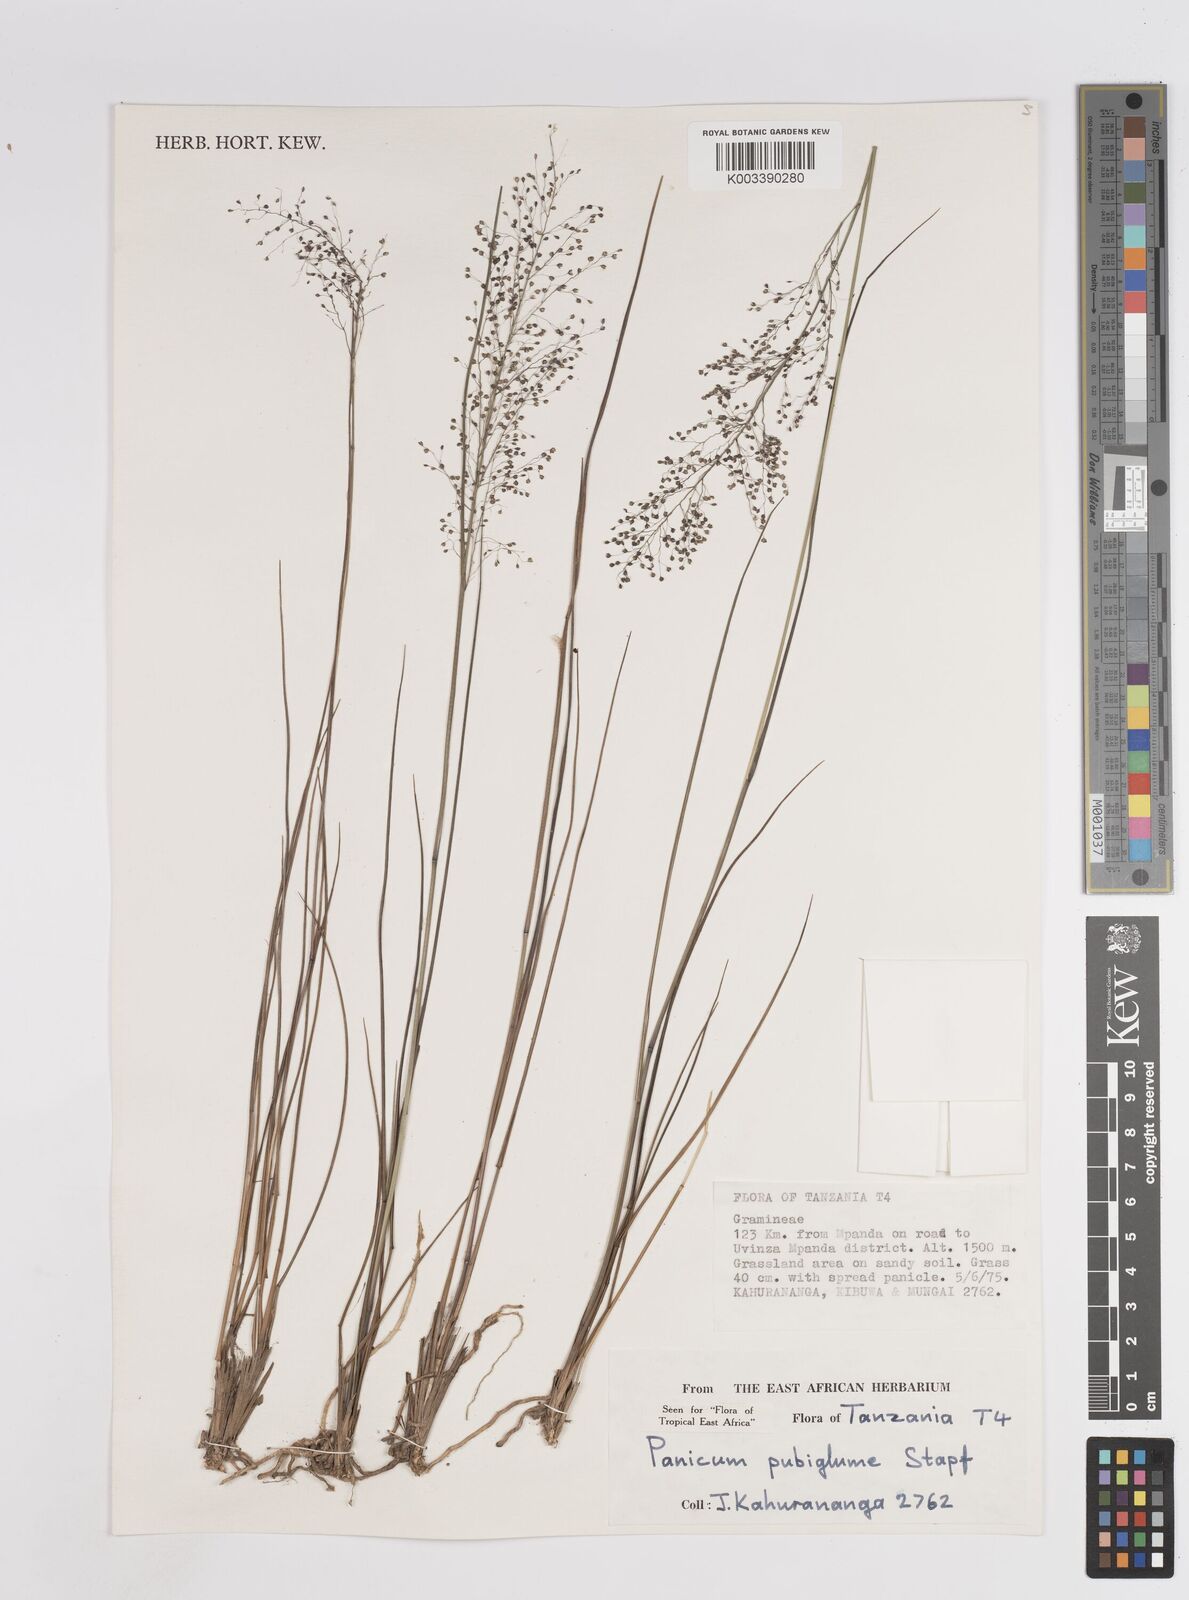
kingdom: Plantae
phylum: Tracheophyta
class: Liliopsida
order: Poales
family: Poaceae
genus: Trichanthecium
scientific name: Trichanthecium brazzavillense
